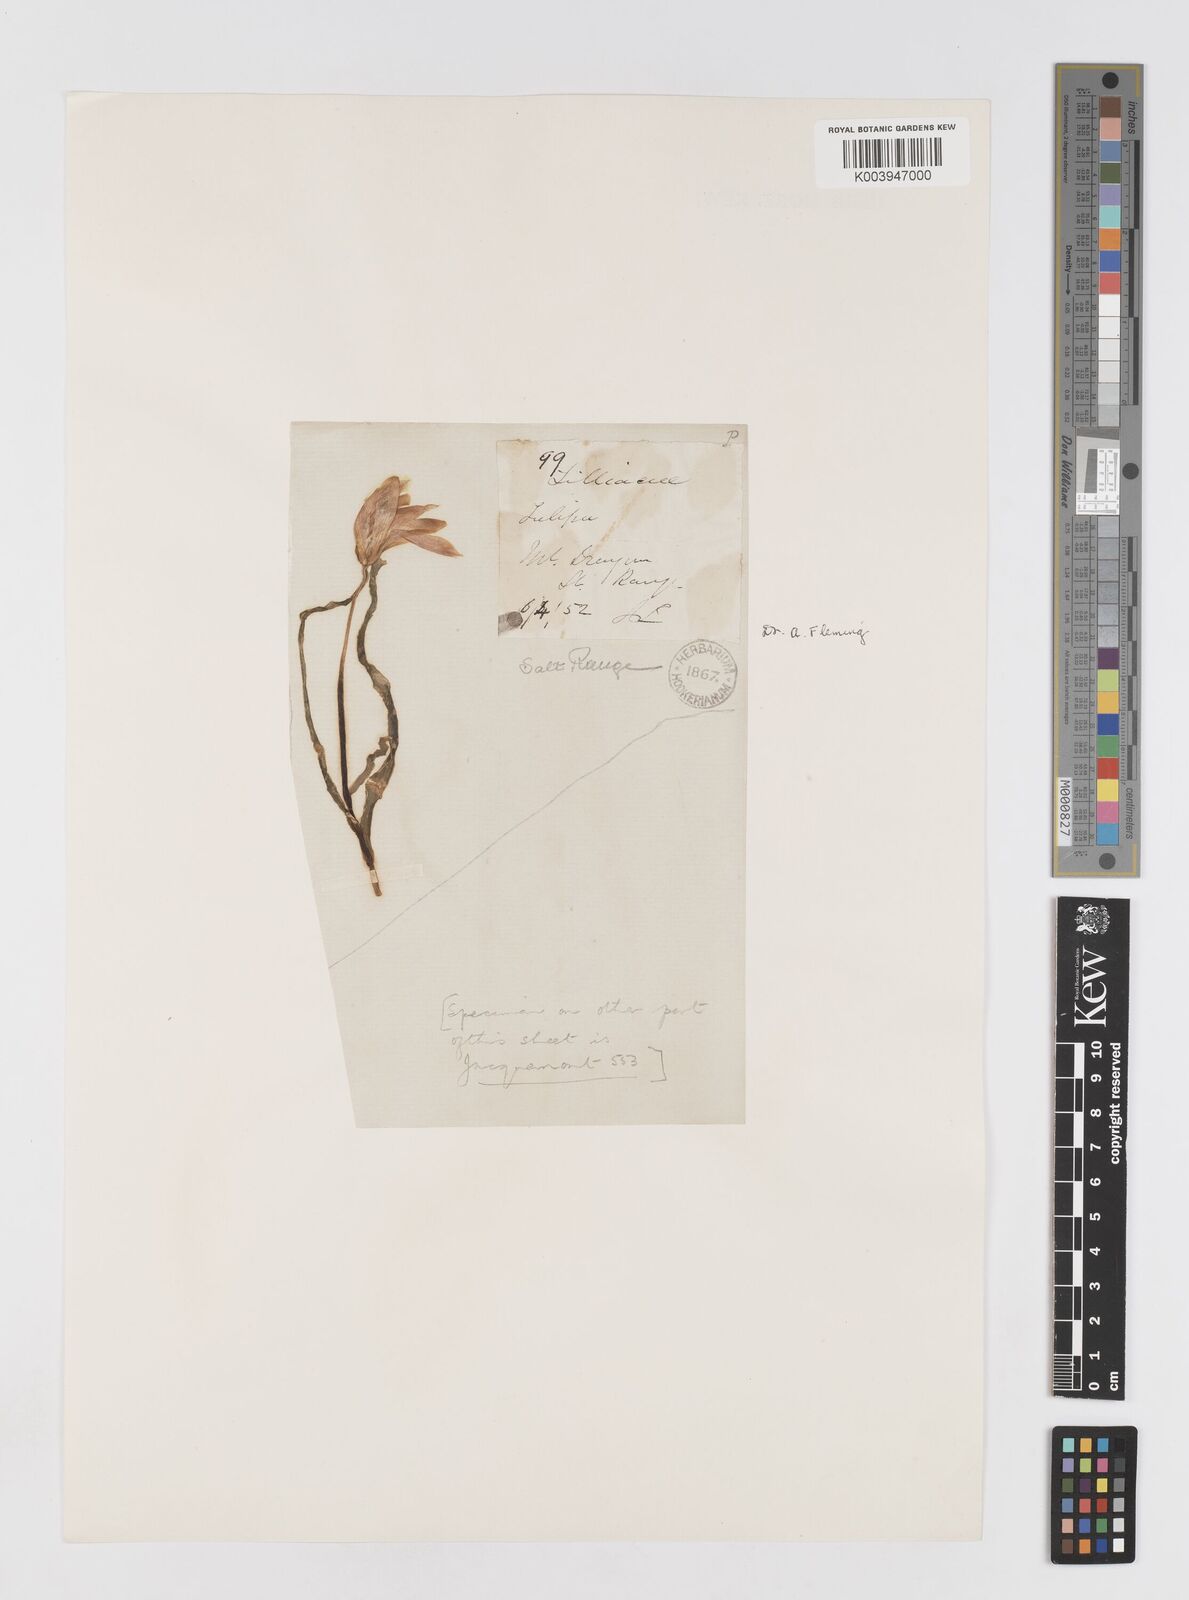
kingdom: Plantae
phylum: Tracheophyta
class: Liliopsida
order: Liliales
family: Liliaceae
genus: Tulipa
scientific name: Tulipa clusiana
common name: Lady tulip
